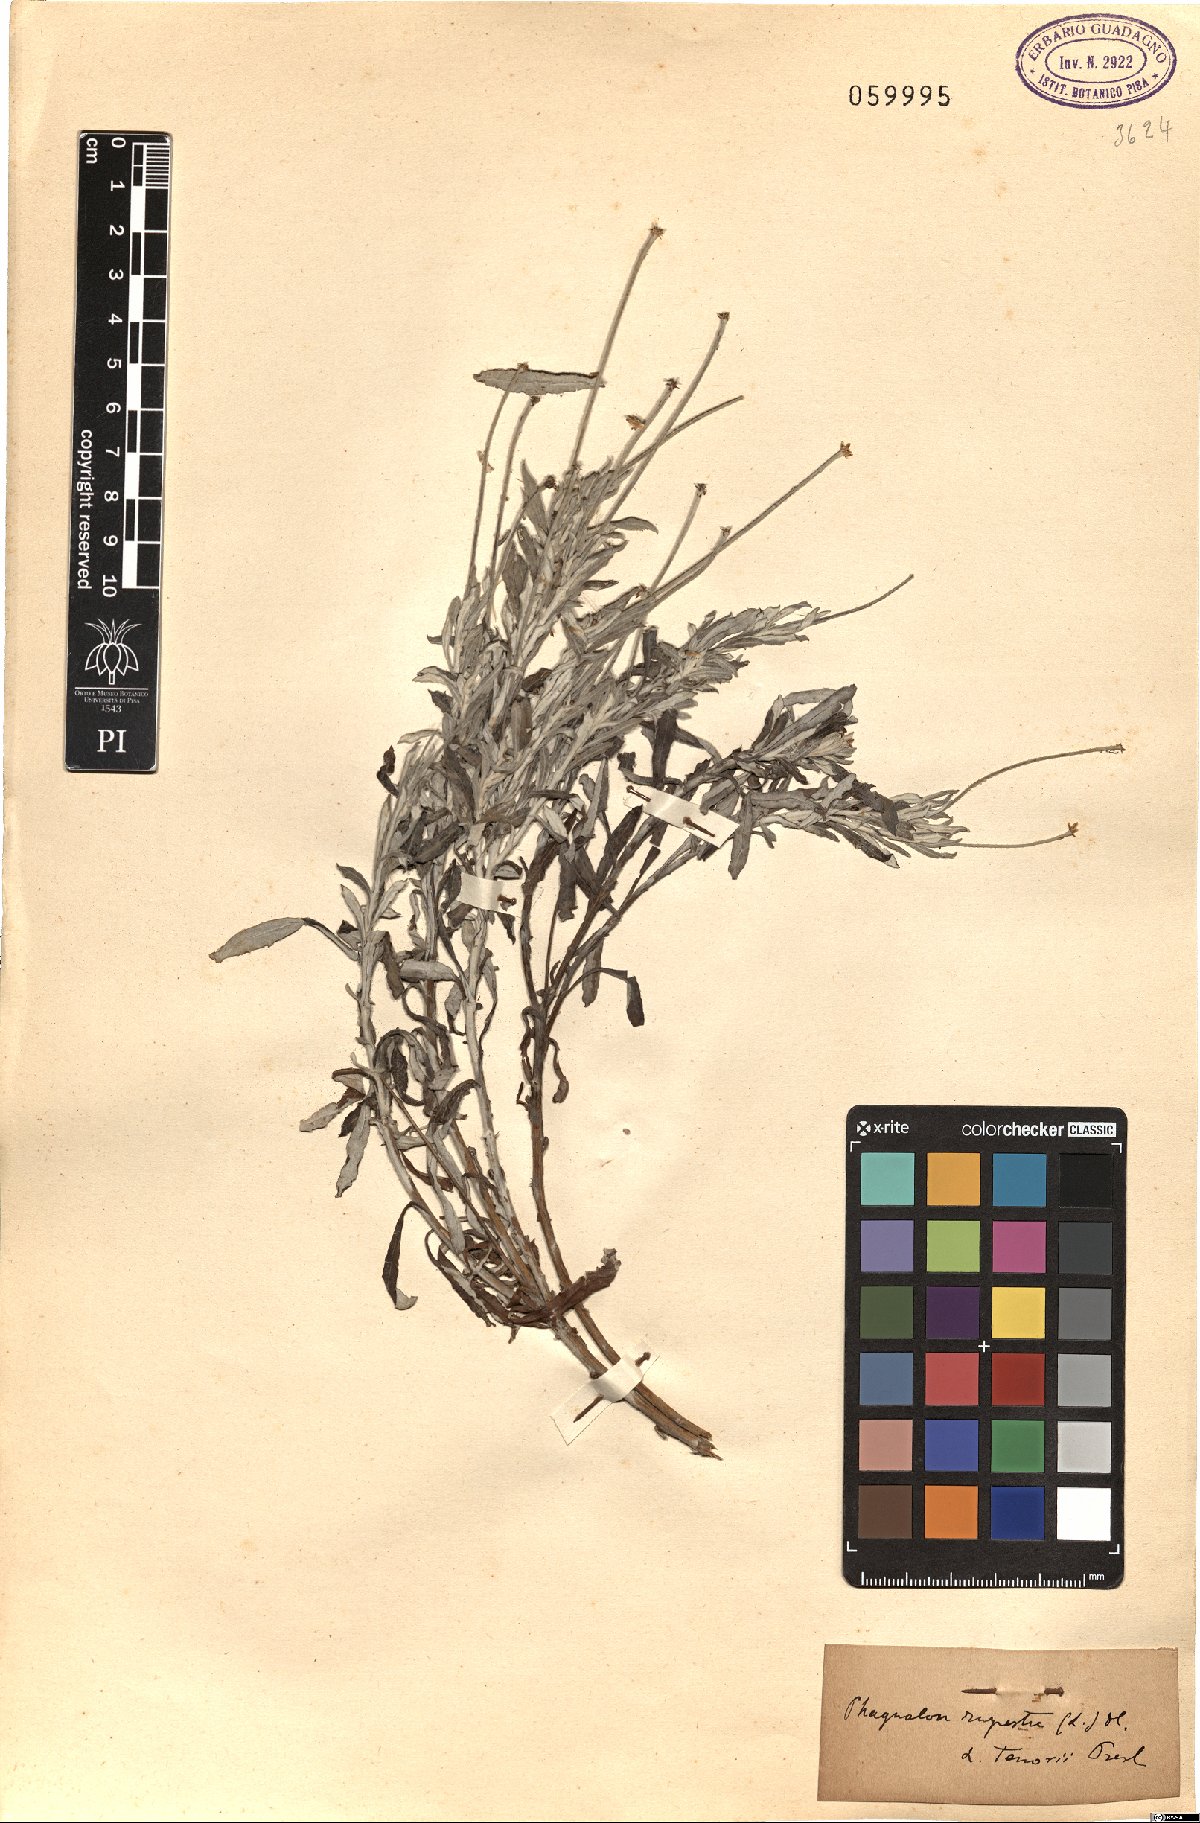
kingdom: Plantae
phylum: Tracheophyta
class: Magnoliopsida
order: Asterales
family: Asteraceae
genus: Phagnalon
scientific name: Phagnalon rupestre
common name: Rock phagnalon
